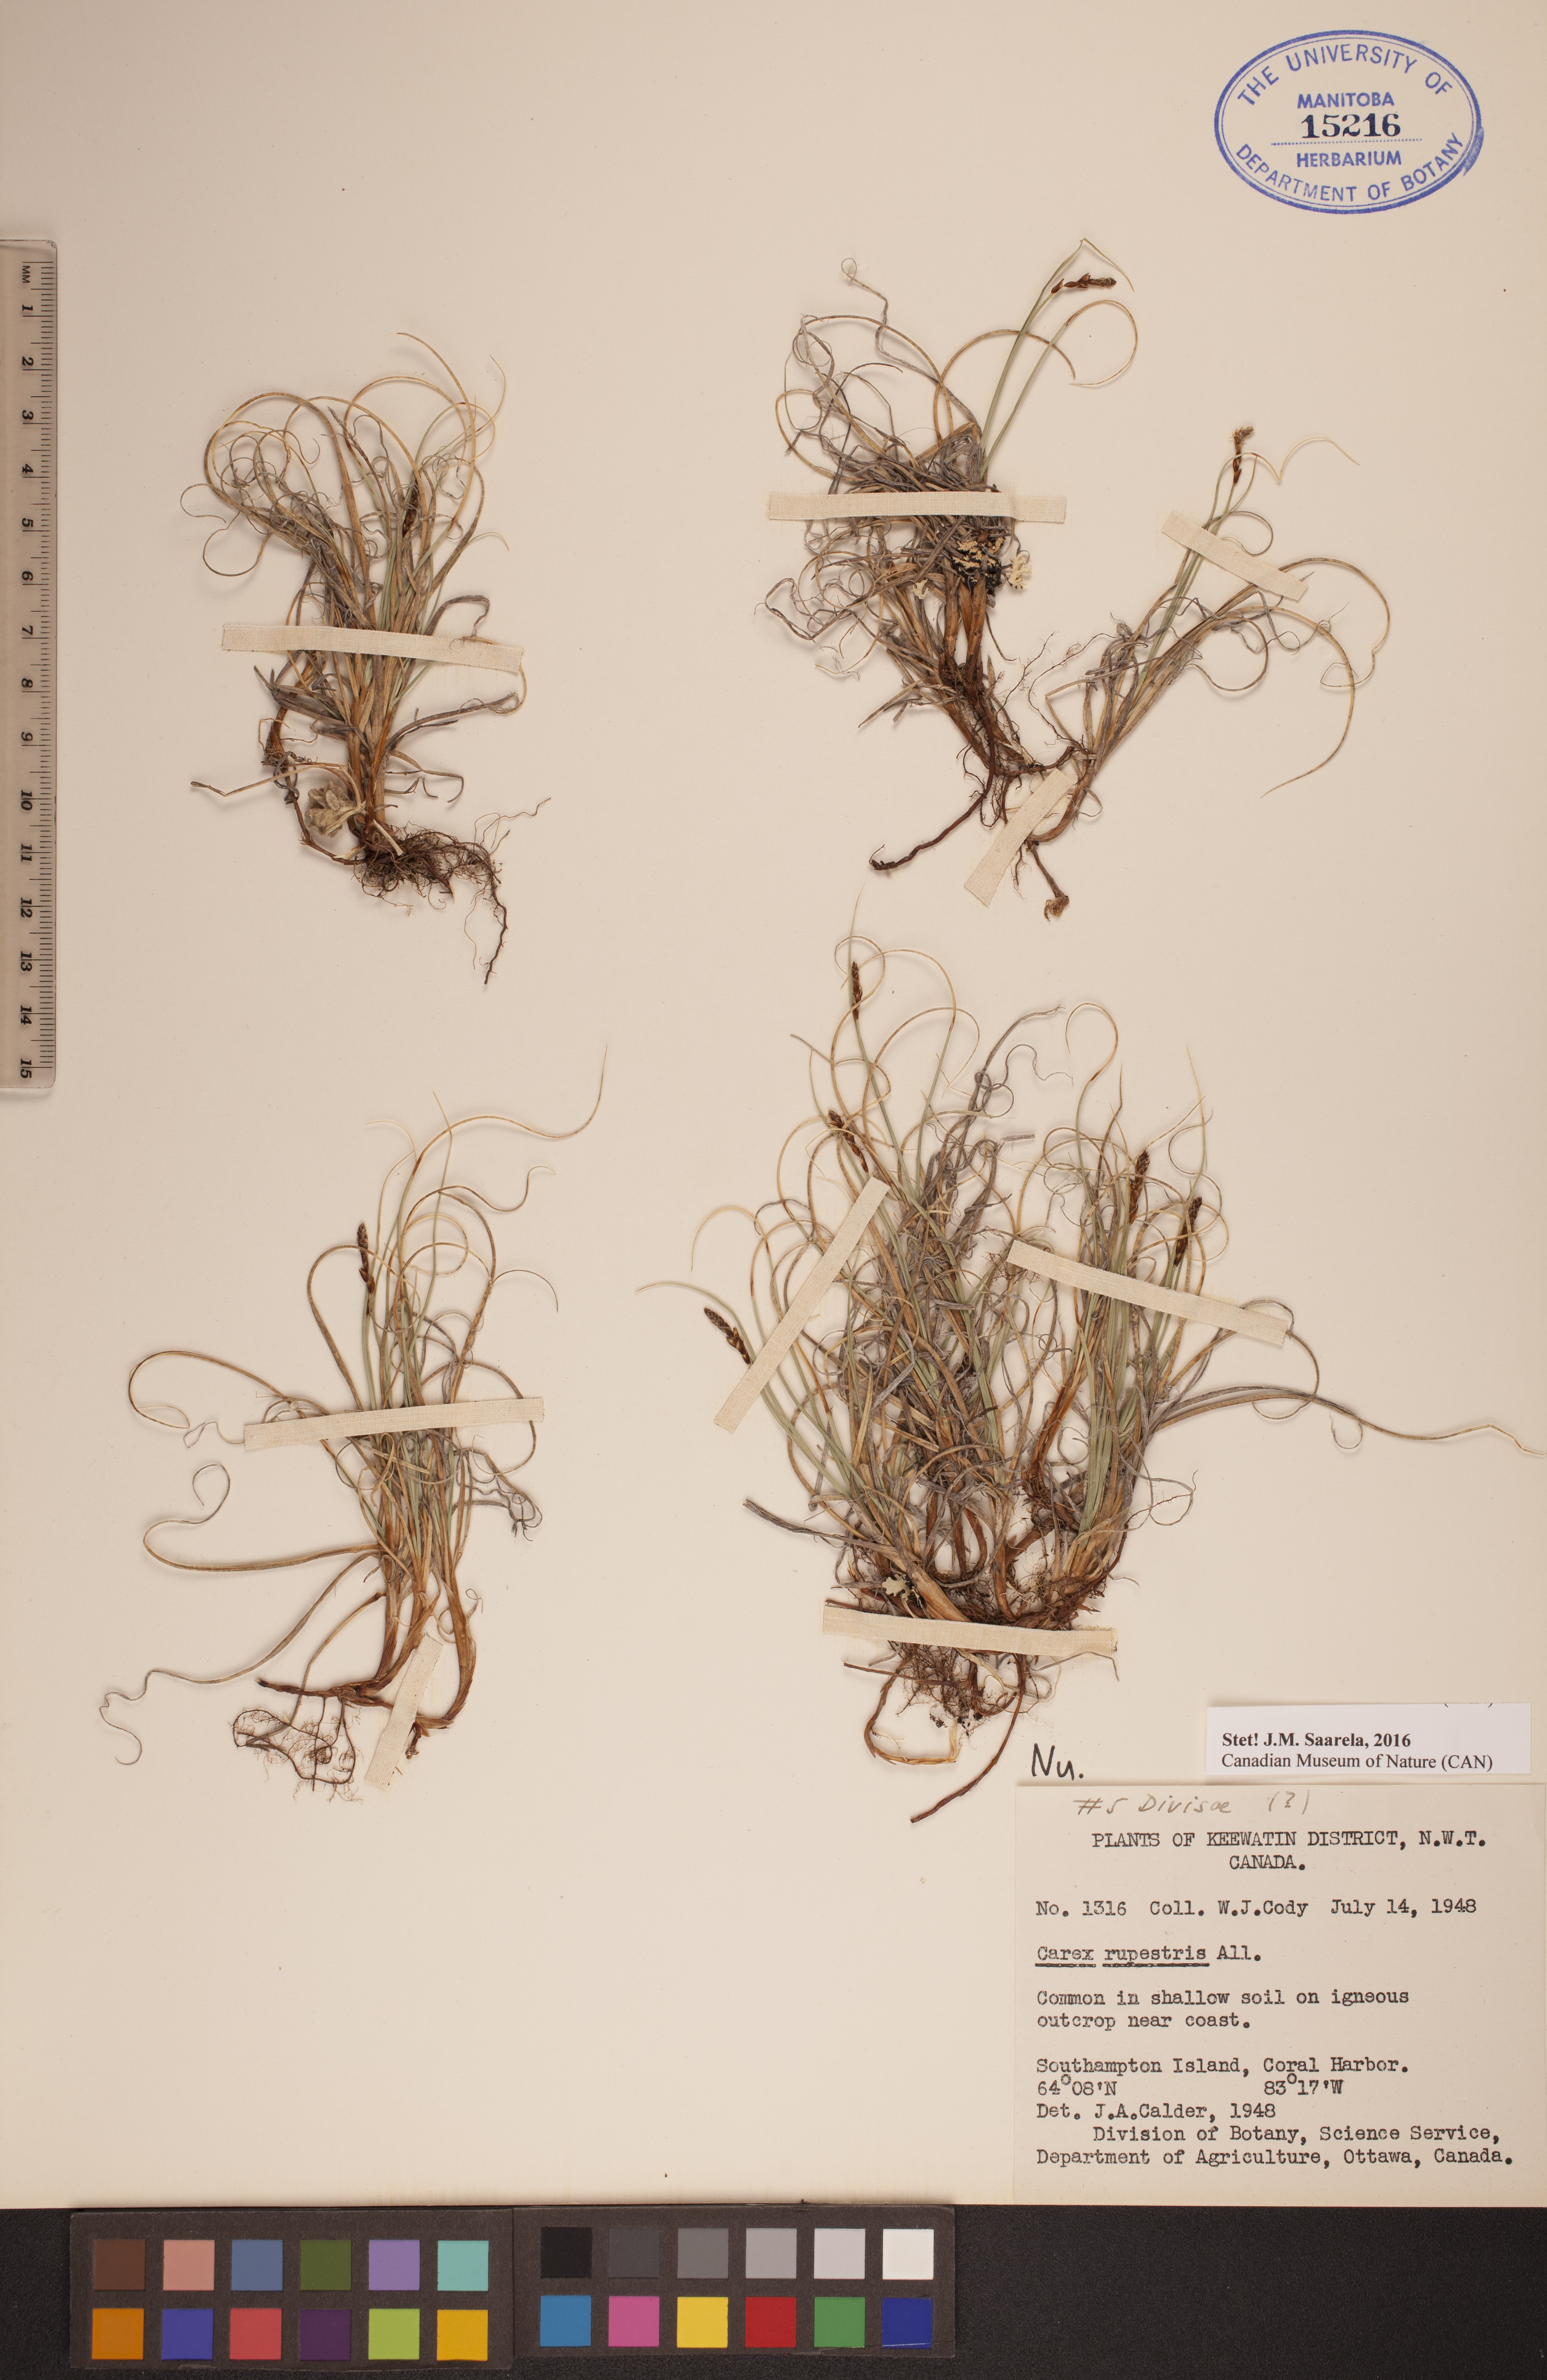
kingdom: Plantae
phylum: Tracheophyta
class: Liliopsida
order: Poales
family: Cyperaceae
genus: Carex
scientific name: Carex rupestris
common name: Rock sedge
